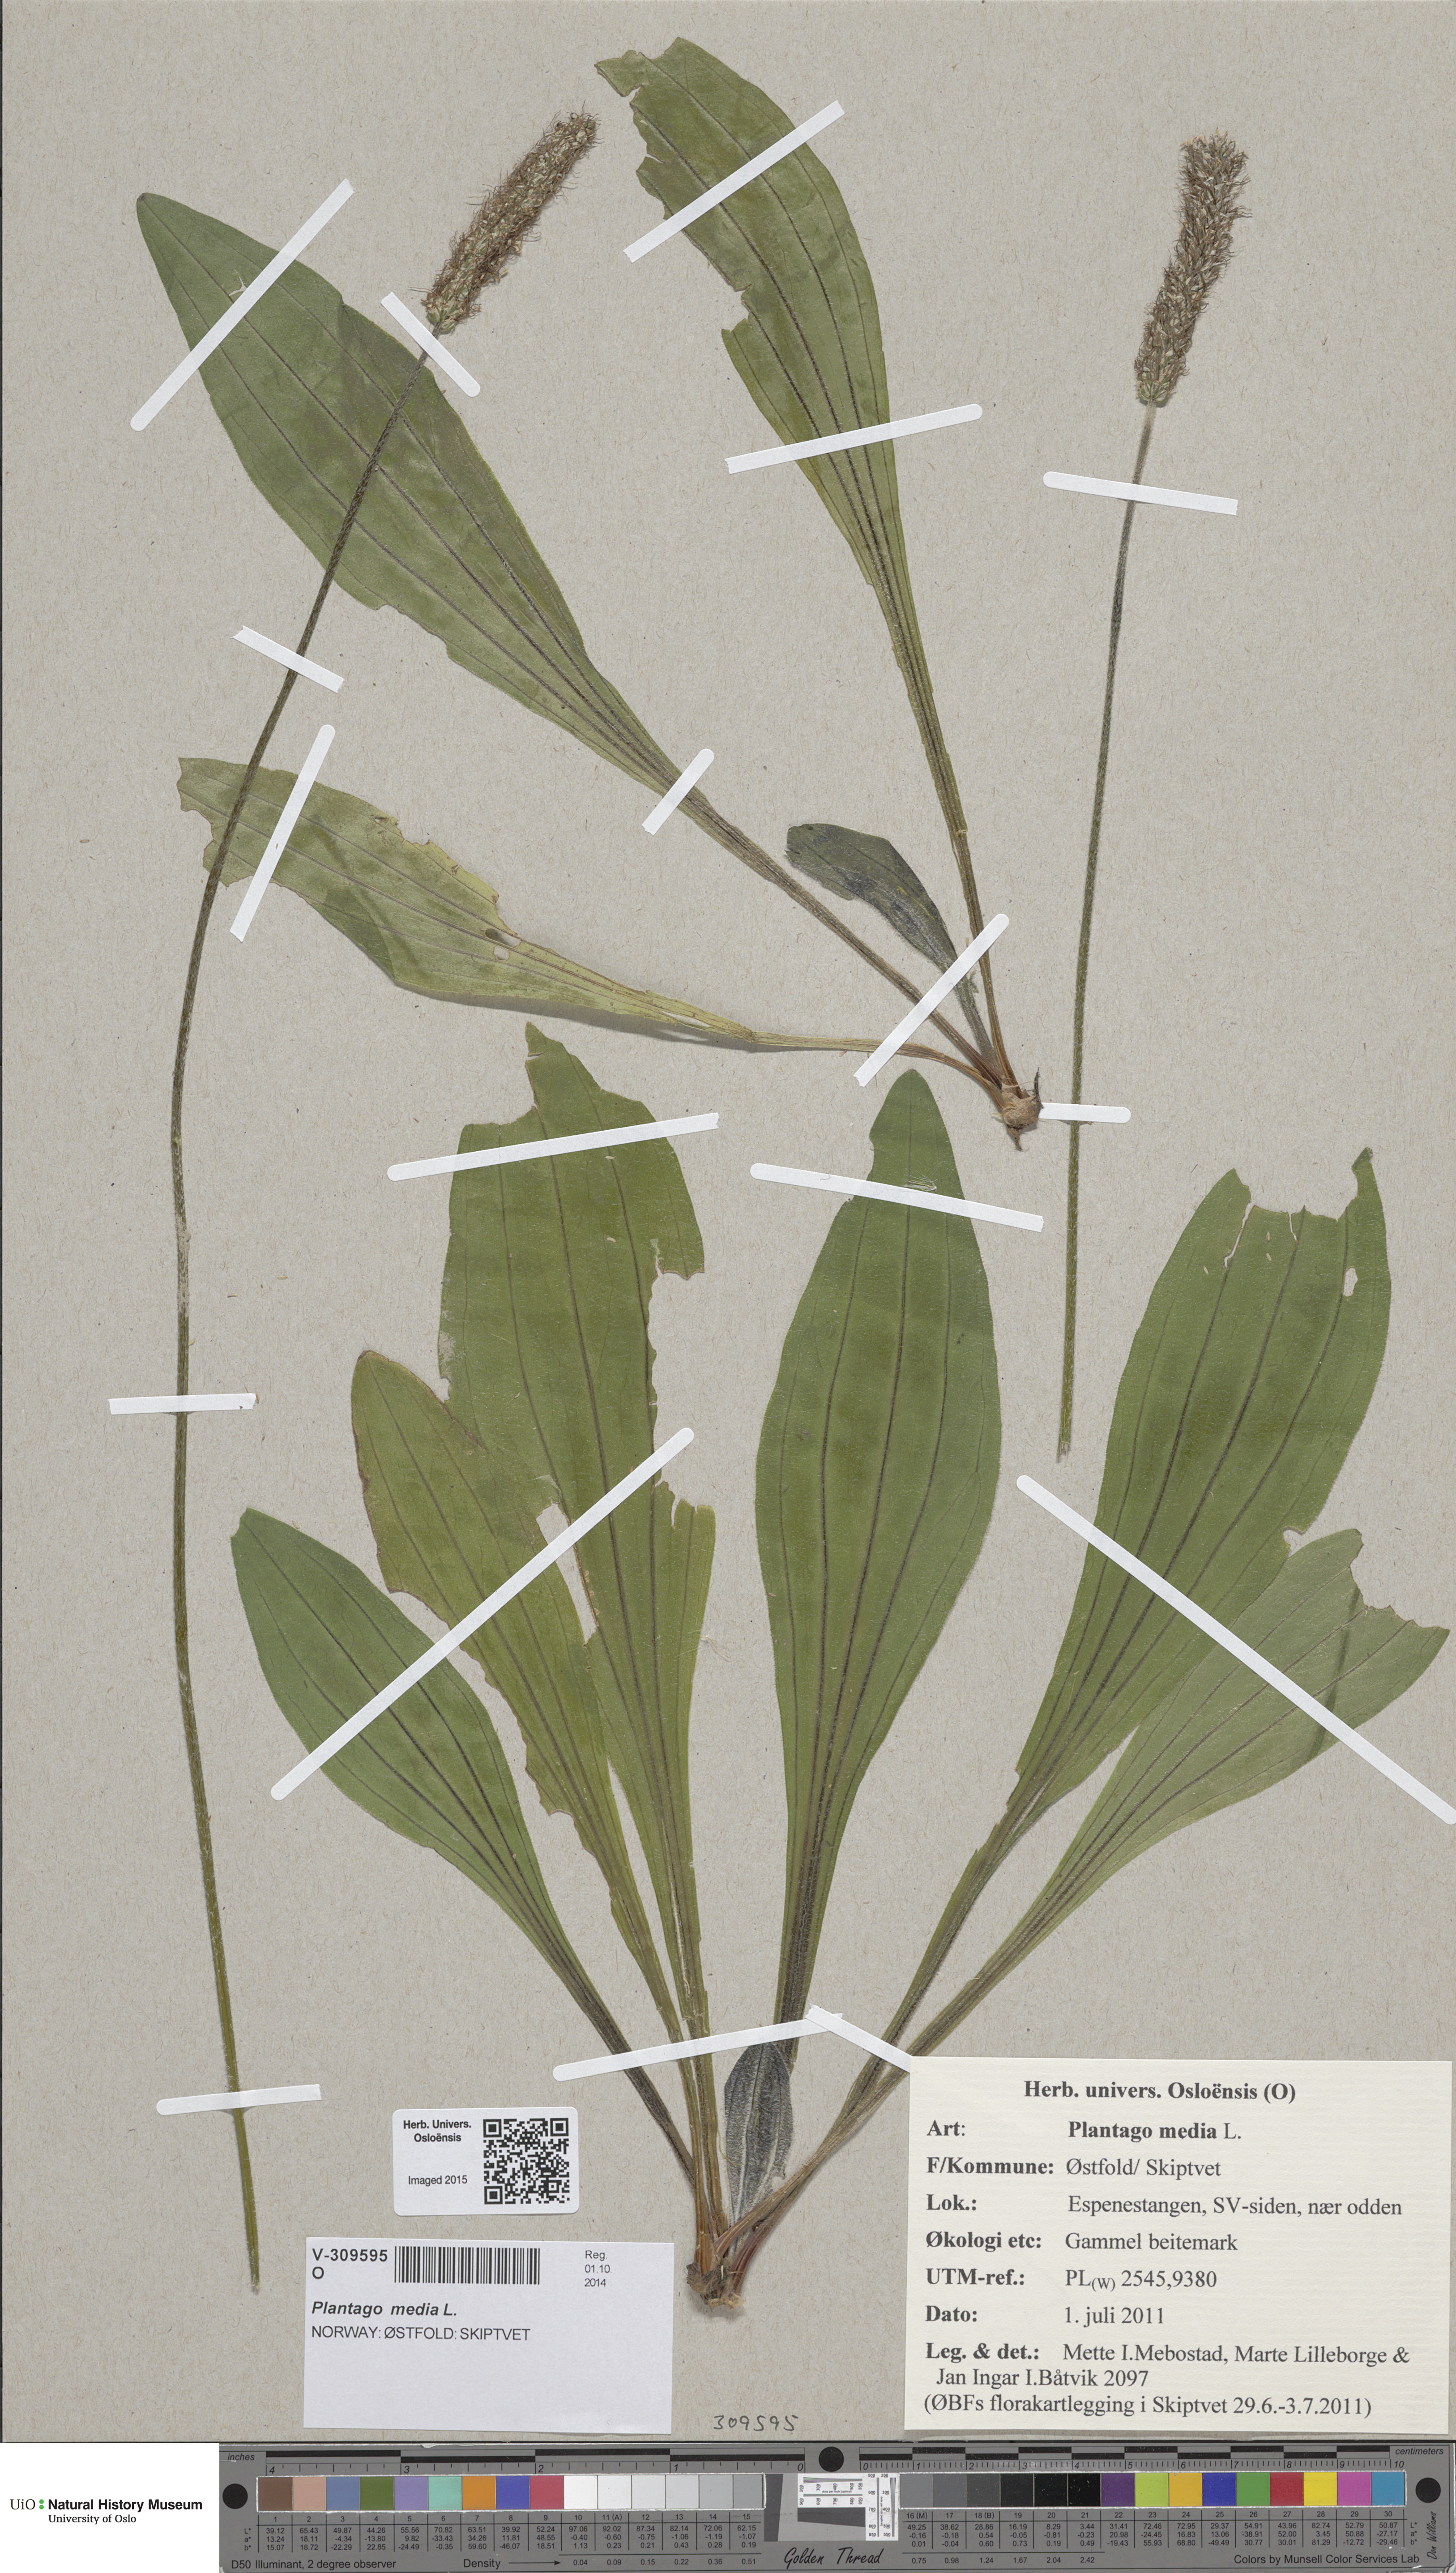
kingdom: Plantae
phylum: Tracheophyta
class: Magnoliopsida
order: Lamiales
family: Plantaginaceae
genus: Plantago
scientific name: Plantago media
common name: Hoary plantain
